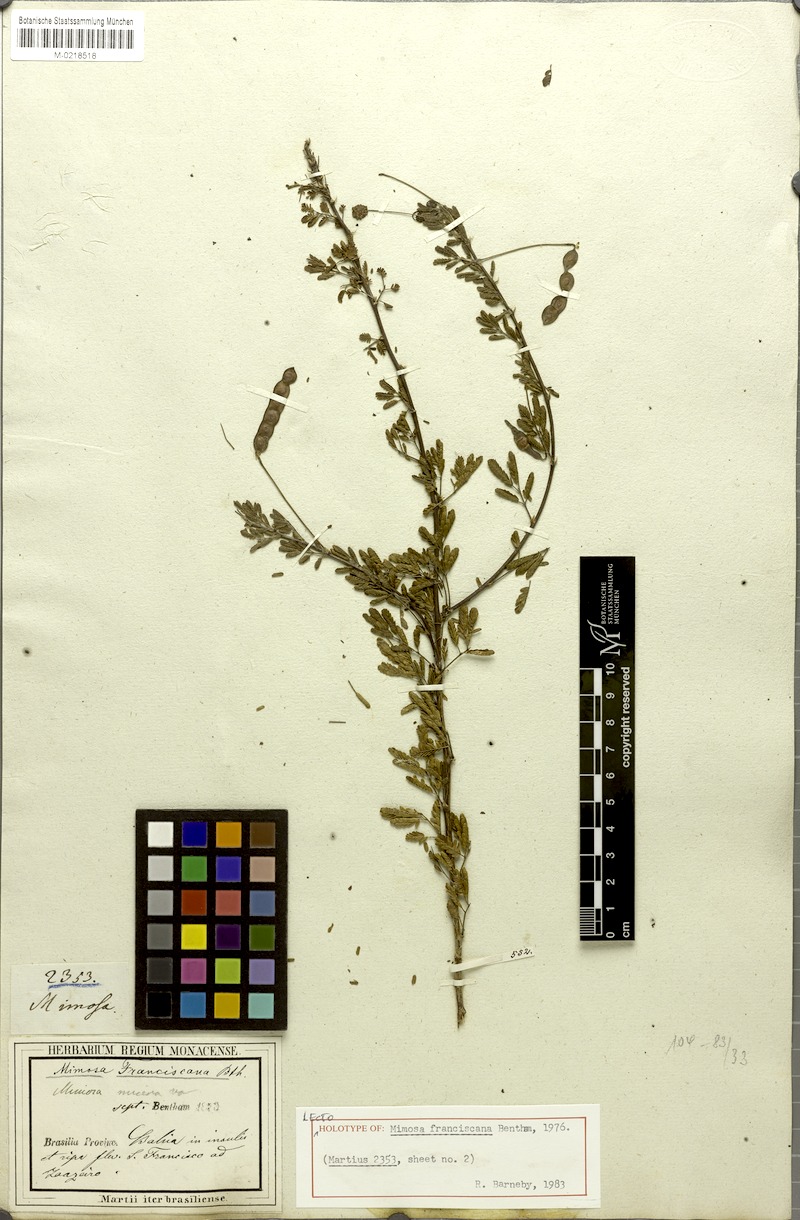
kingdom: Plantae
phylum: Tracheophyta
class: Magnoliopsida
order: Fabales
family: Fabaceae
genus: Mimosa
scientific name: Mimosa misera
